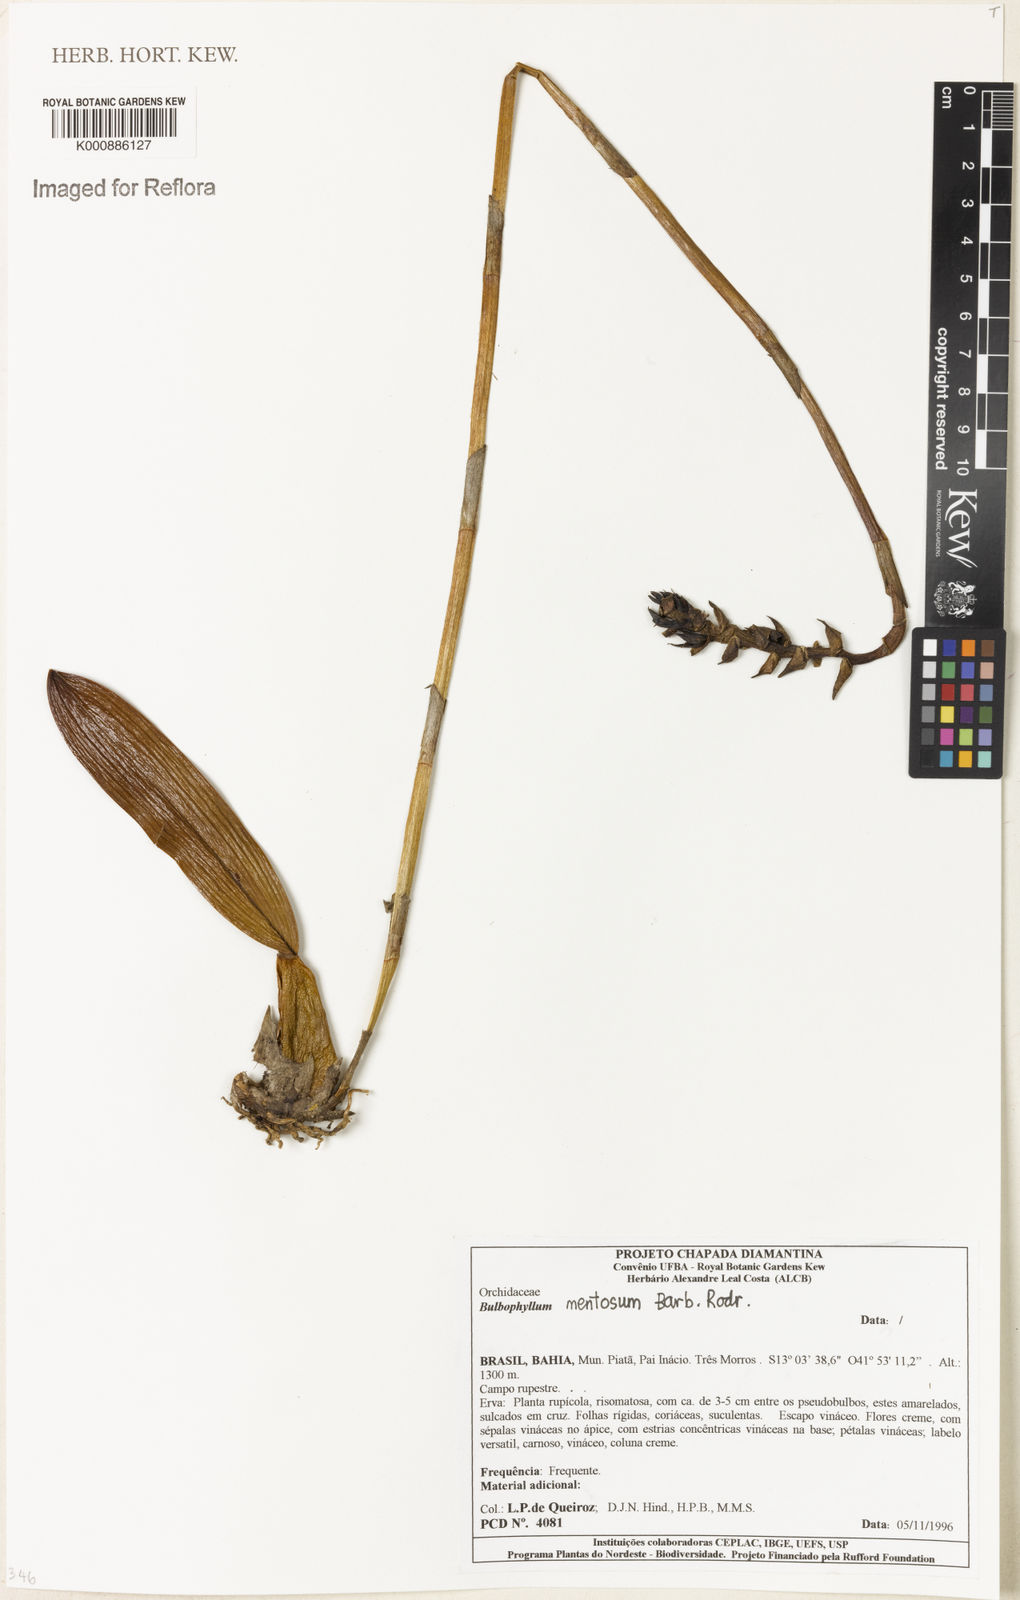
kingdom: Plantae
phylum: Tracheophyta
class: Liliopsida
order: Asparagales
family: Orchidaceae
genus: Bulbophyllum
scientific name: Bulbophyllum mentosum
